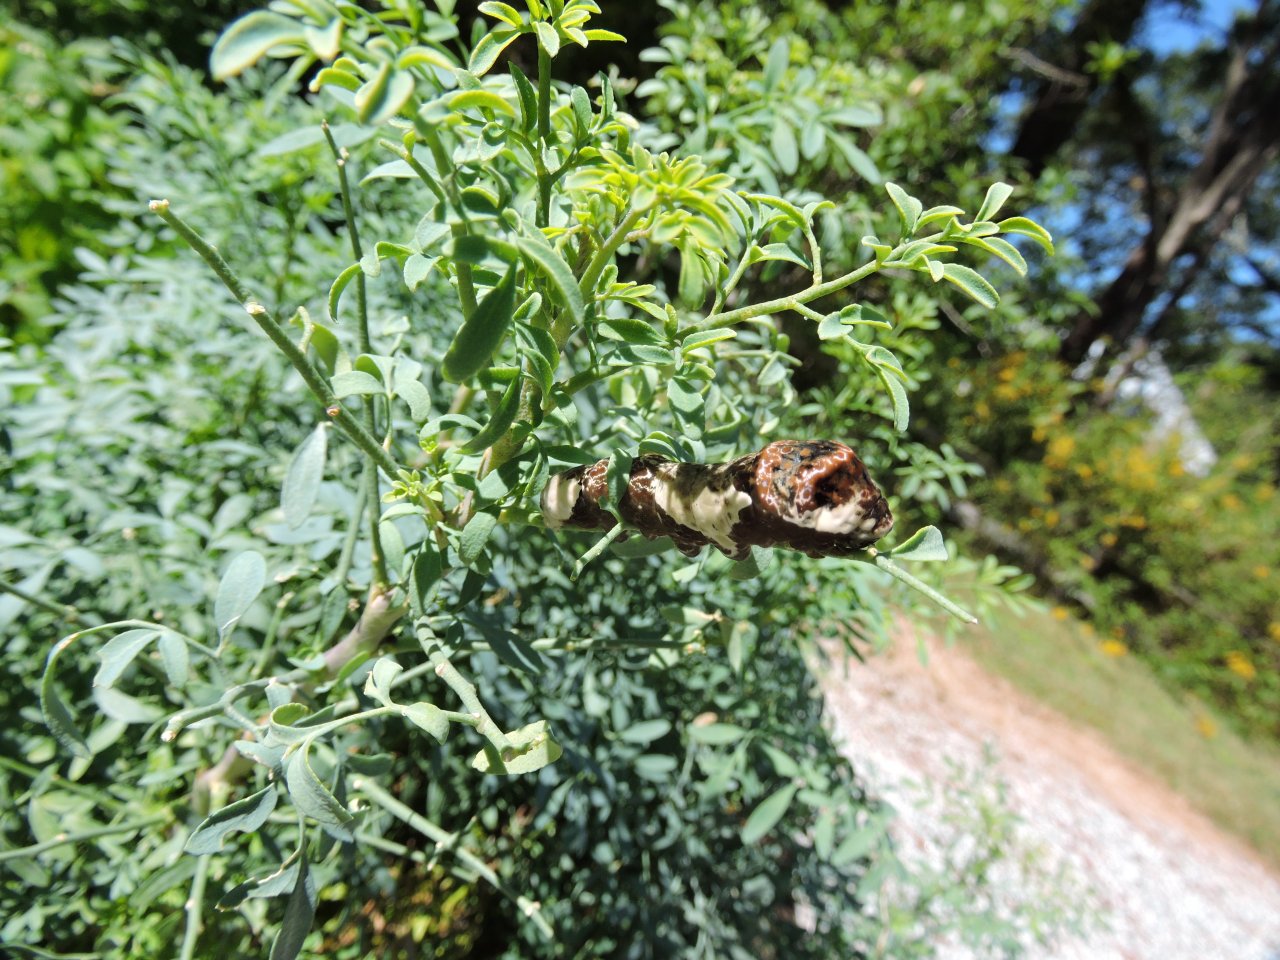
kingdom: Animalia
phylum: Arthropoda
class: Insecta
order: Lepidoptera
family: Papilionidae
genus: Papilio
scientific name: Papilio cresphontes
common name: Eastern Giant Swallowtail
